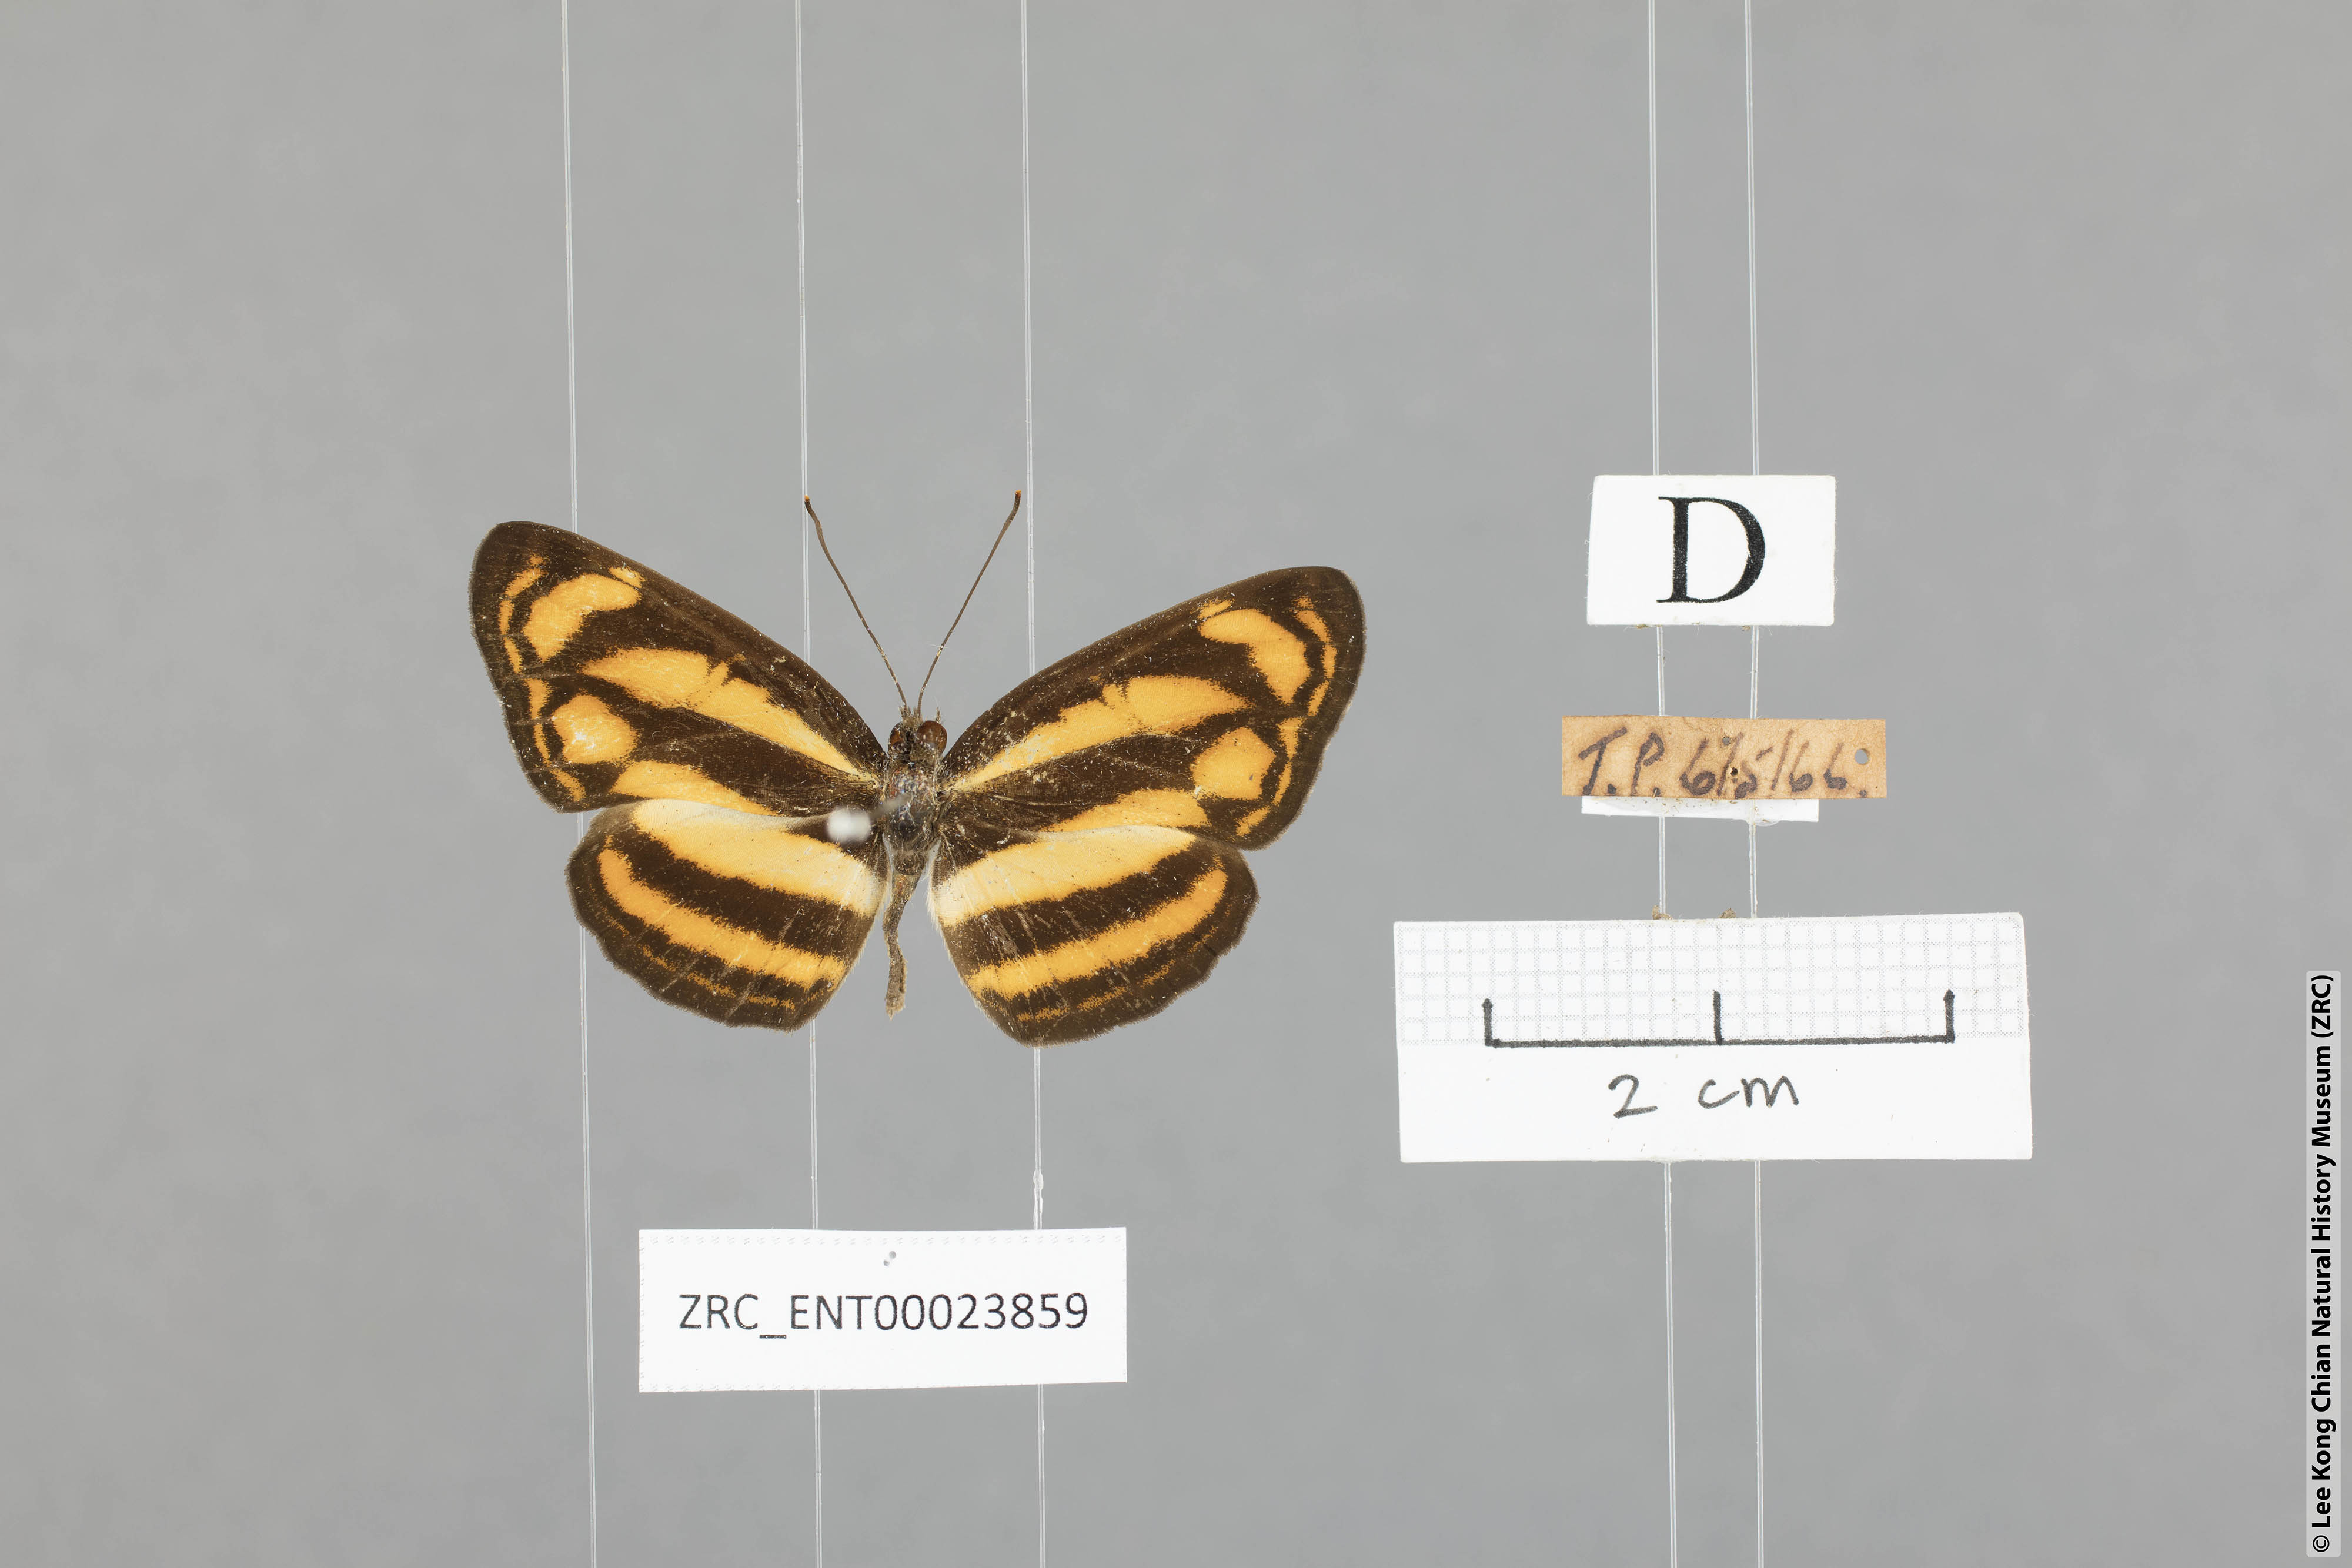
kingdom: Animalia
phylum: Arthropoda
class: Insecta
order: Lepidoptera
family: Nymphalidae
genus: Lasippa
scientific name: Lasippa tiga
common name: Malayan lascar
